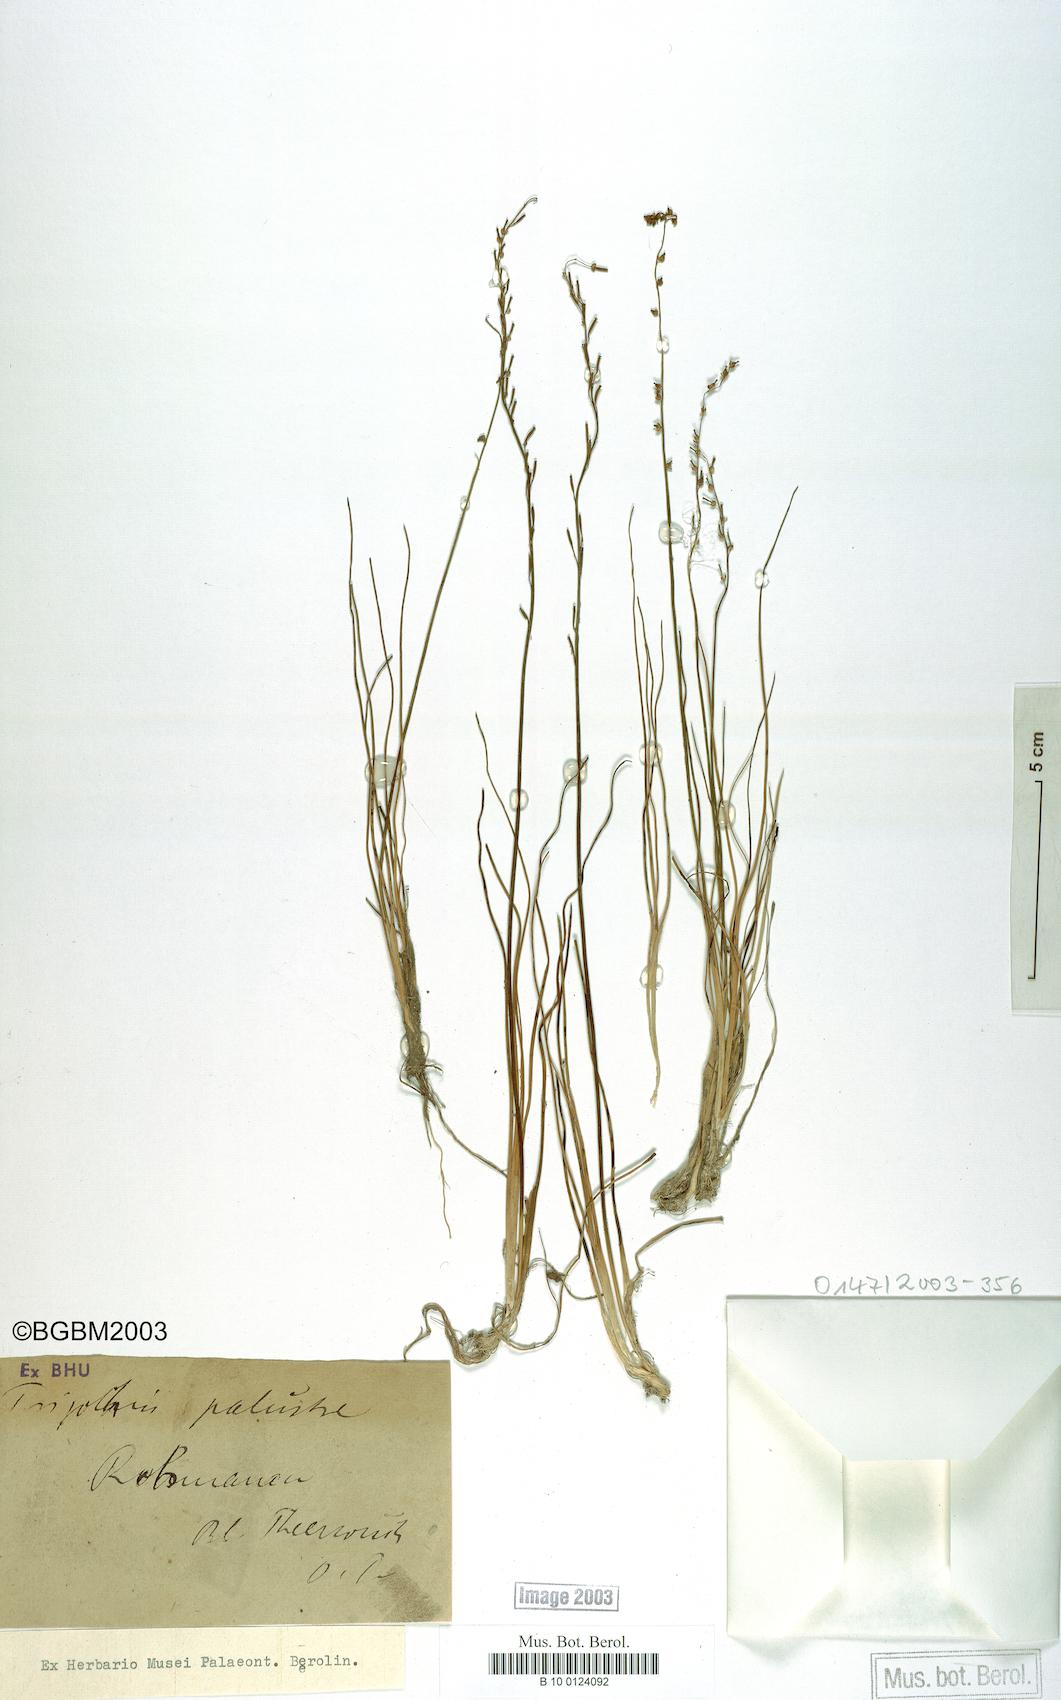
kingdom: Plantae
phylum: Tracheophyta
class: Liliopsida
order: Alismatales
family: Juncaginaceae
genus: Triglochin
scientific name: Triglochin palustris
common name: Marsh arrowgrass
